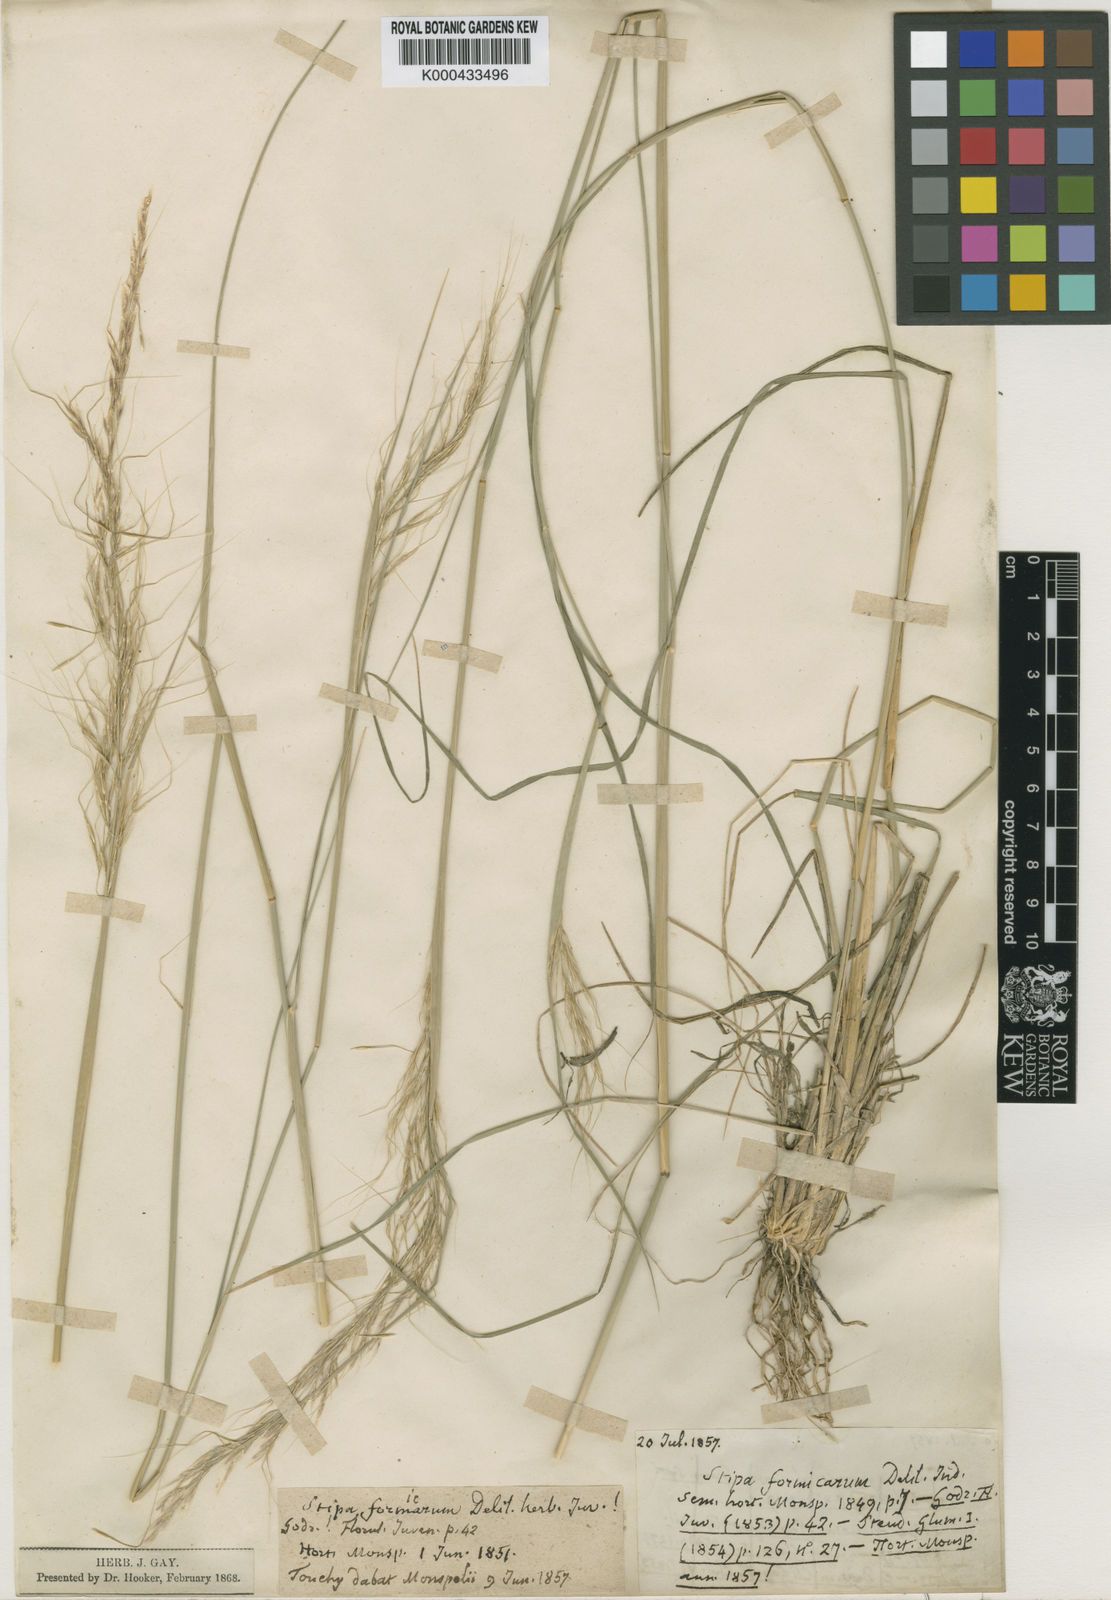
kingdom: Plantae
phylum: Tracheophyta
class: Liliopsida
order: Poales
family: Poaceae
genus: Nassella
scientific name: Nassella formicarum
